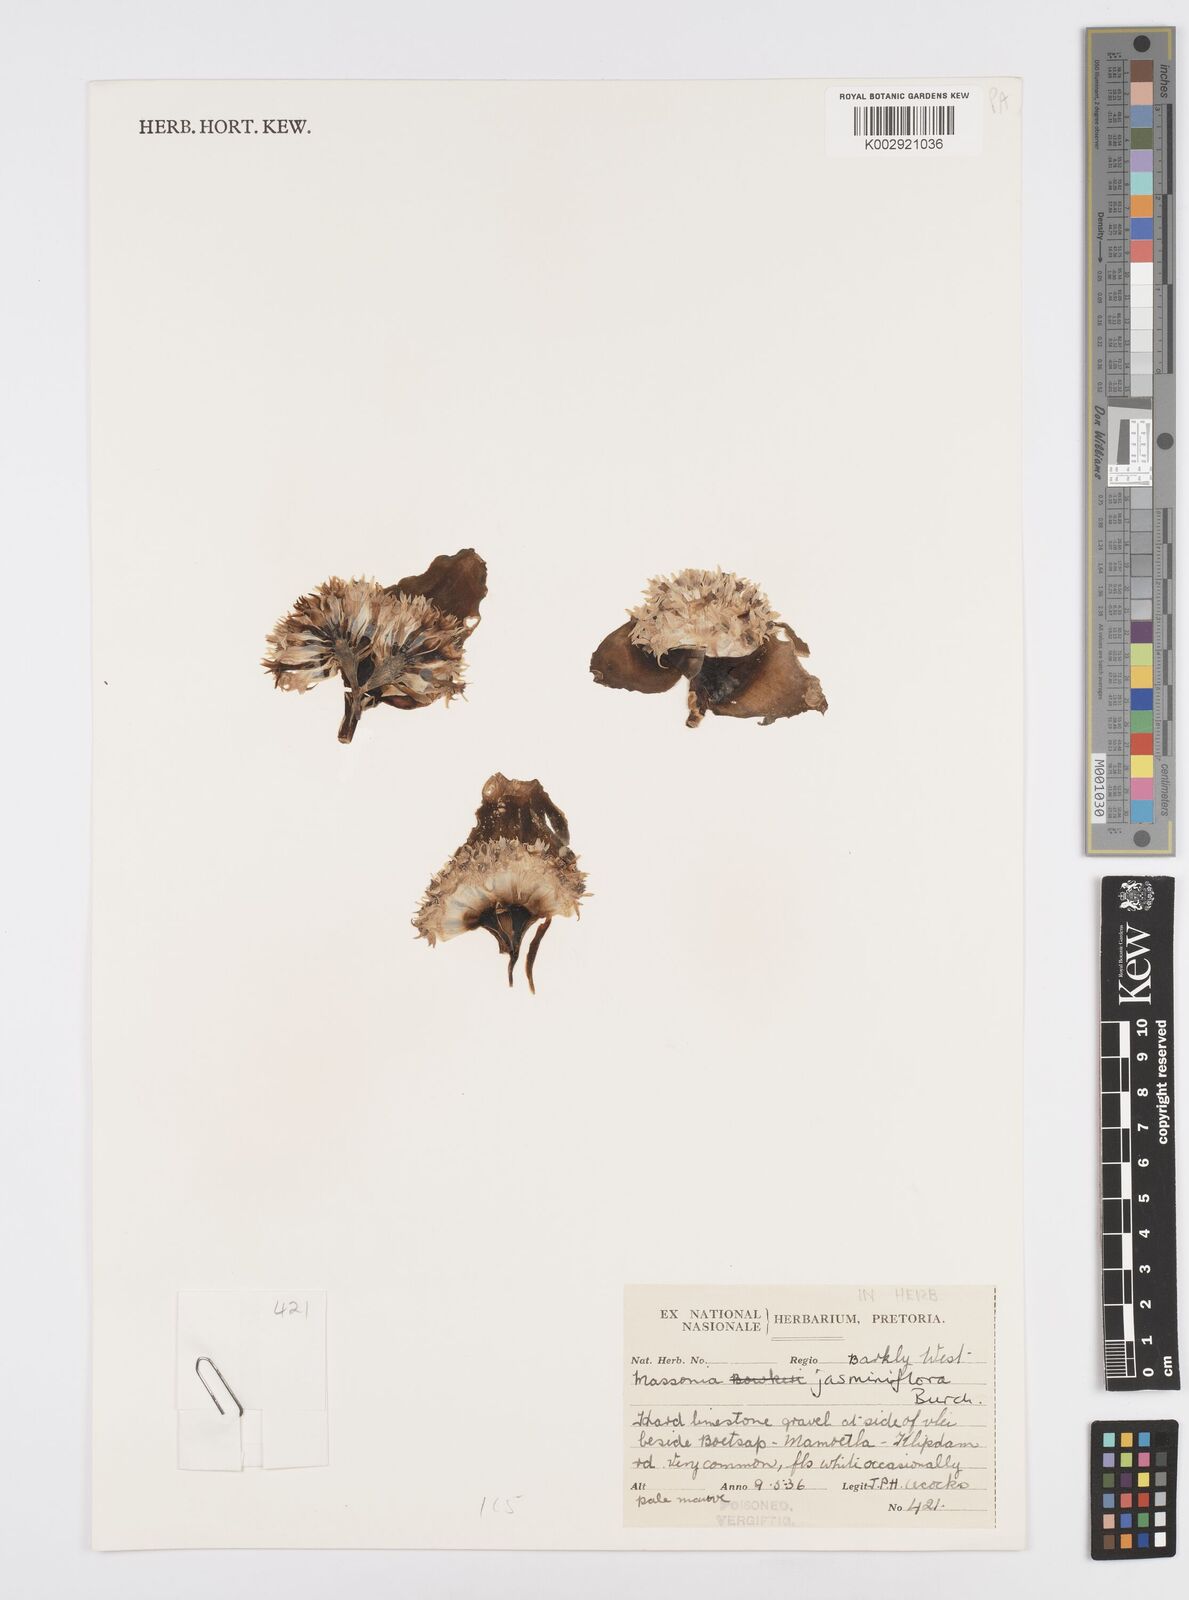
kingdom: Plantae
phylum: Tracheophyta
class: Liliopsida
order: Asparagales
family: Asparagaceae
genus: Massonia
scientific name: Massonia jasminiflora
